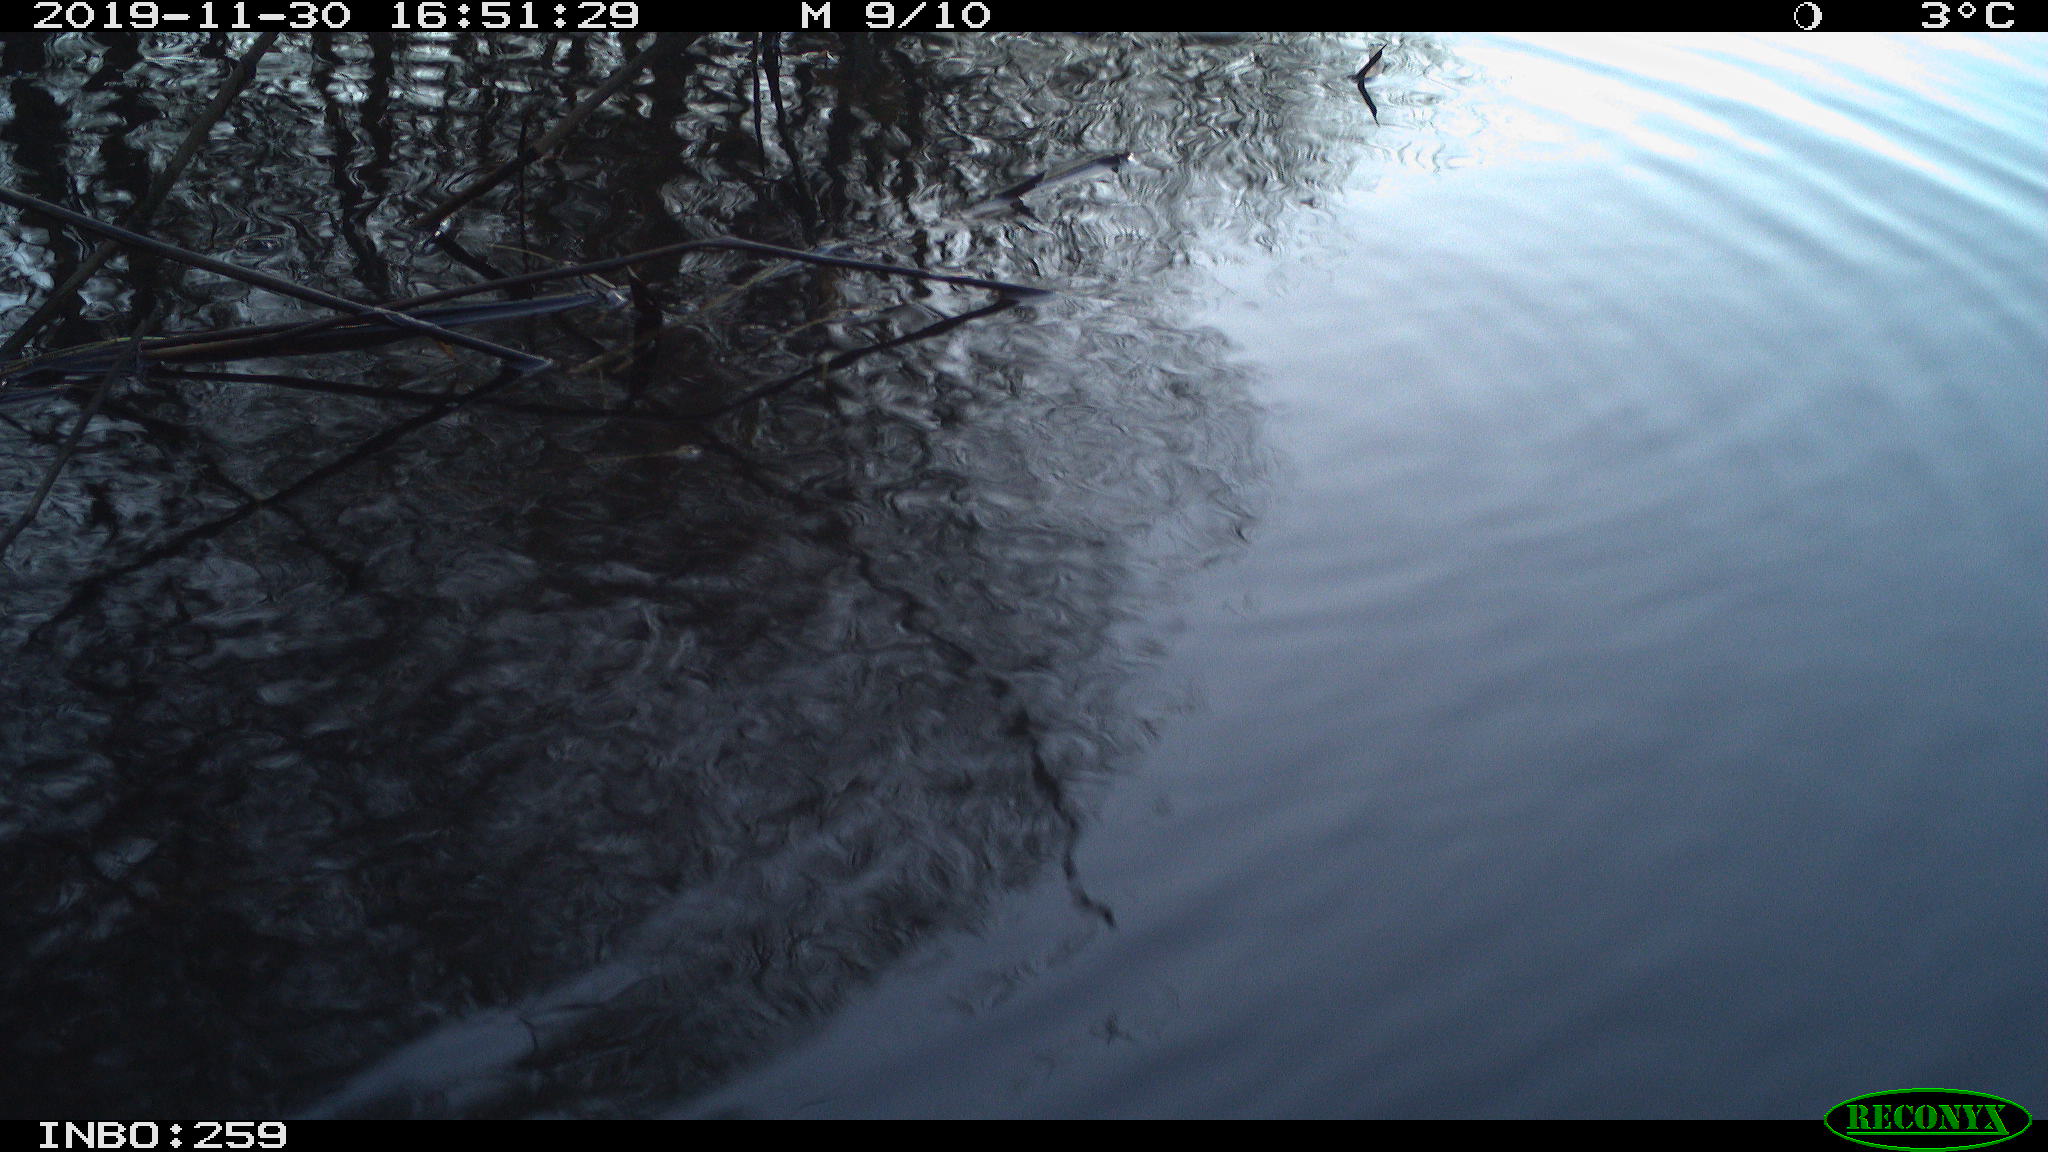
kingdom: Animalia
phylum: Chordata
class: Aves
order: Gruiformes
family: Rallidae
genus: Gallinula
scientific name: Gallinula chloropus
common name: Common moorhen
